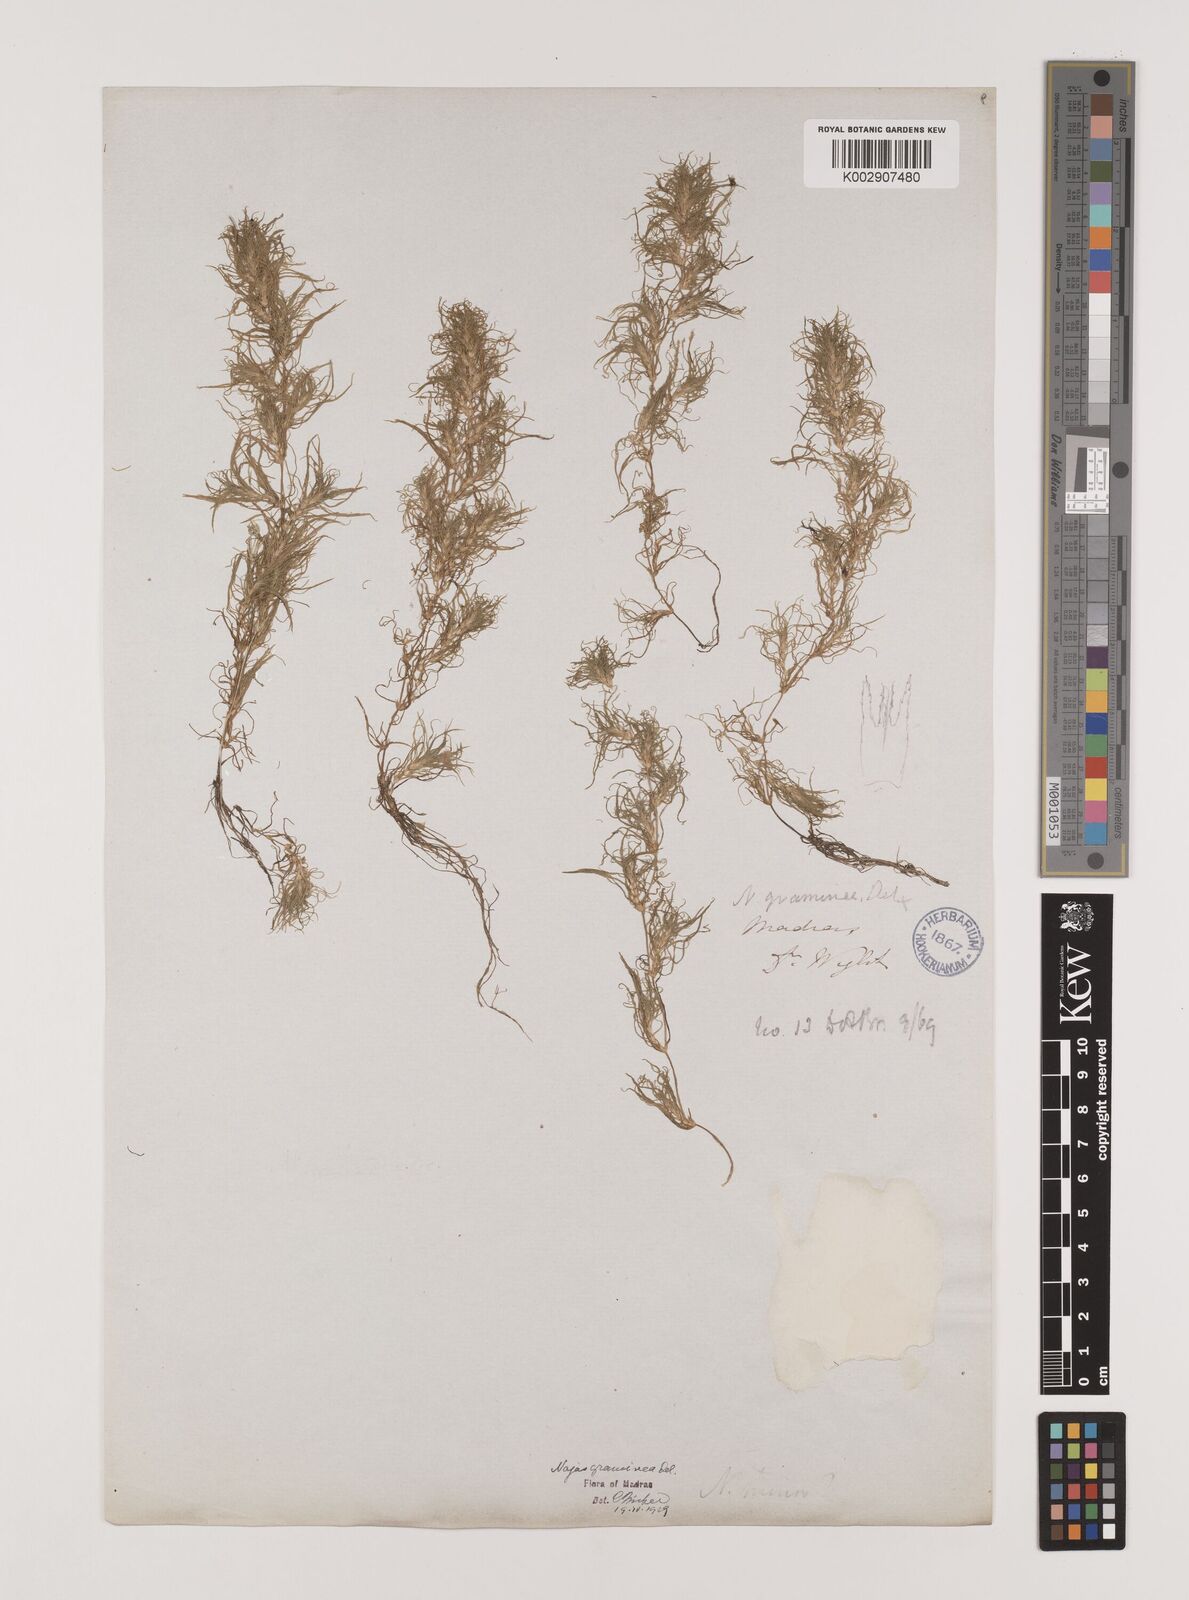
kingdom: Plantae
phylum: Tracheophyta
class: Liliopsida
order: Alismatales
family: Hydrocharitaceae
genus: Najas
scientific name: Najas graminea
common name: Ricefield waternymph
